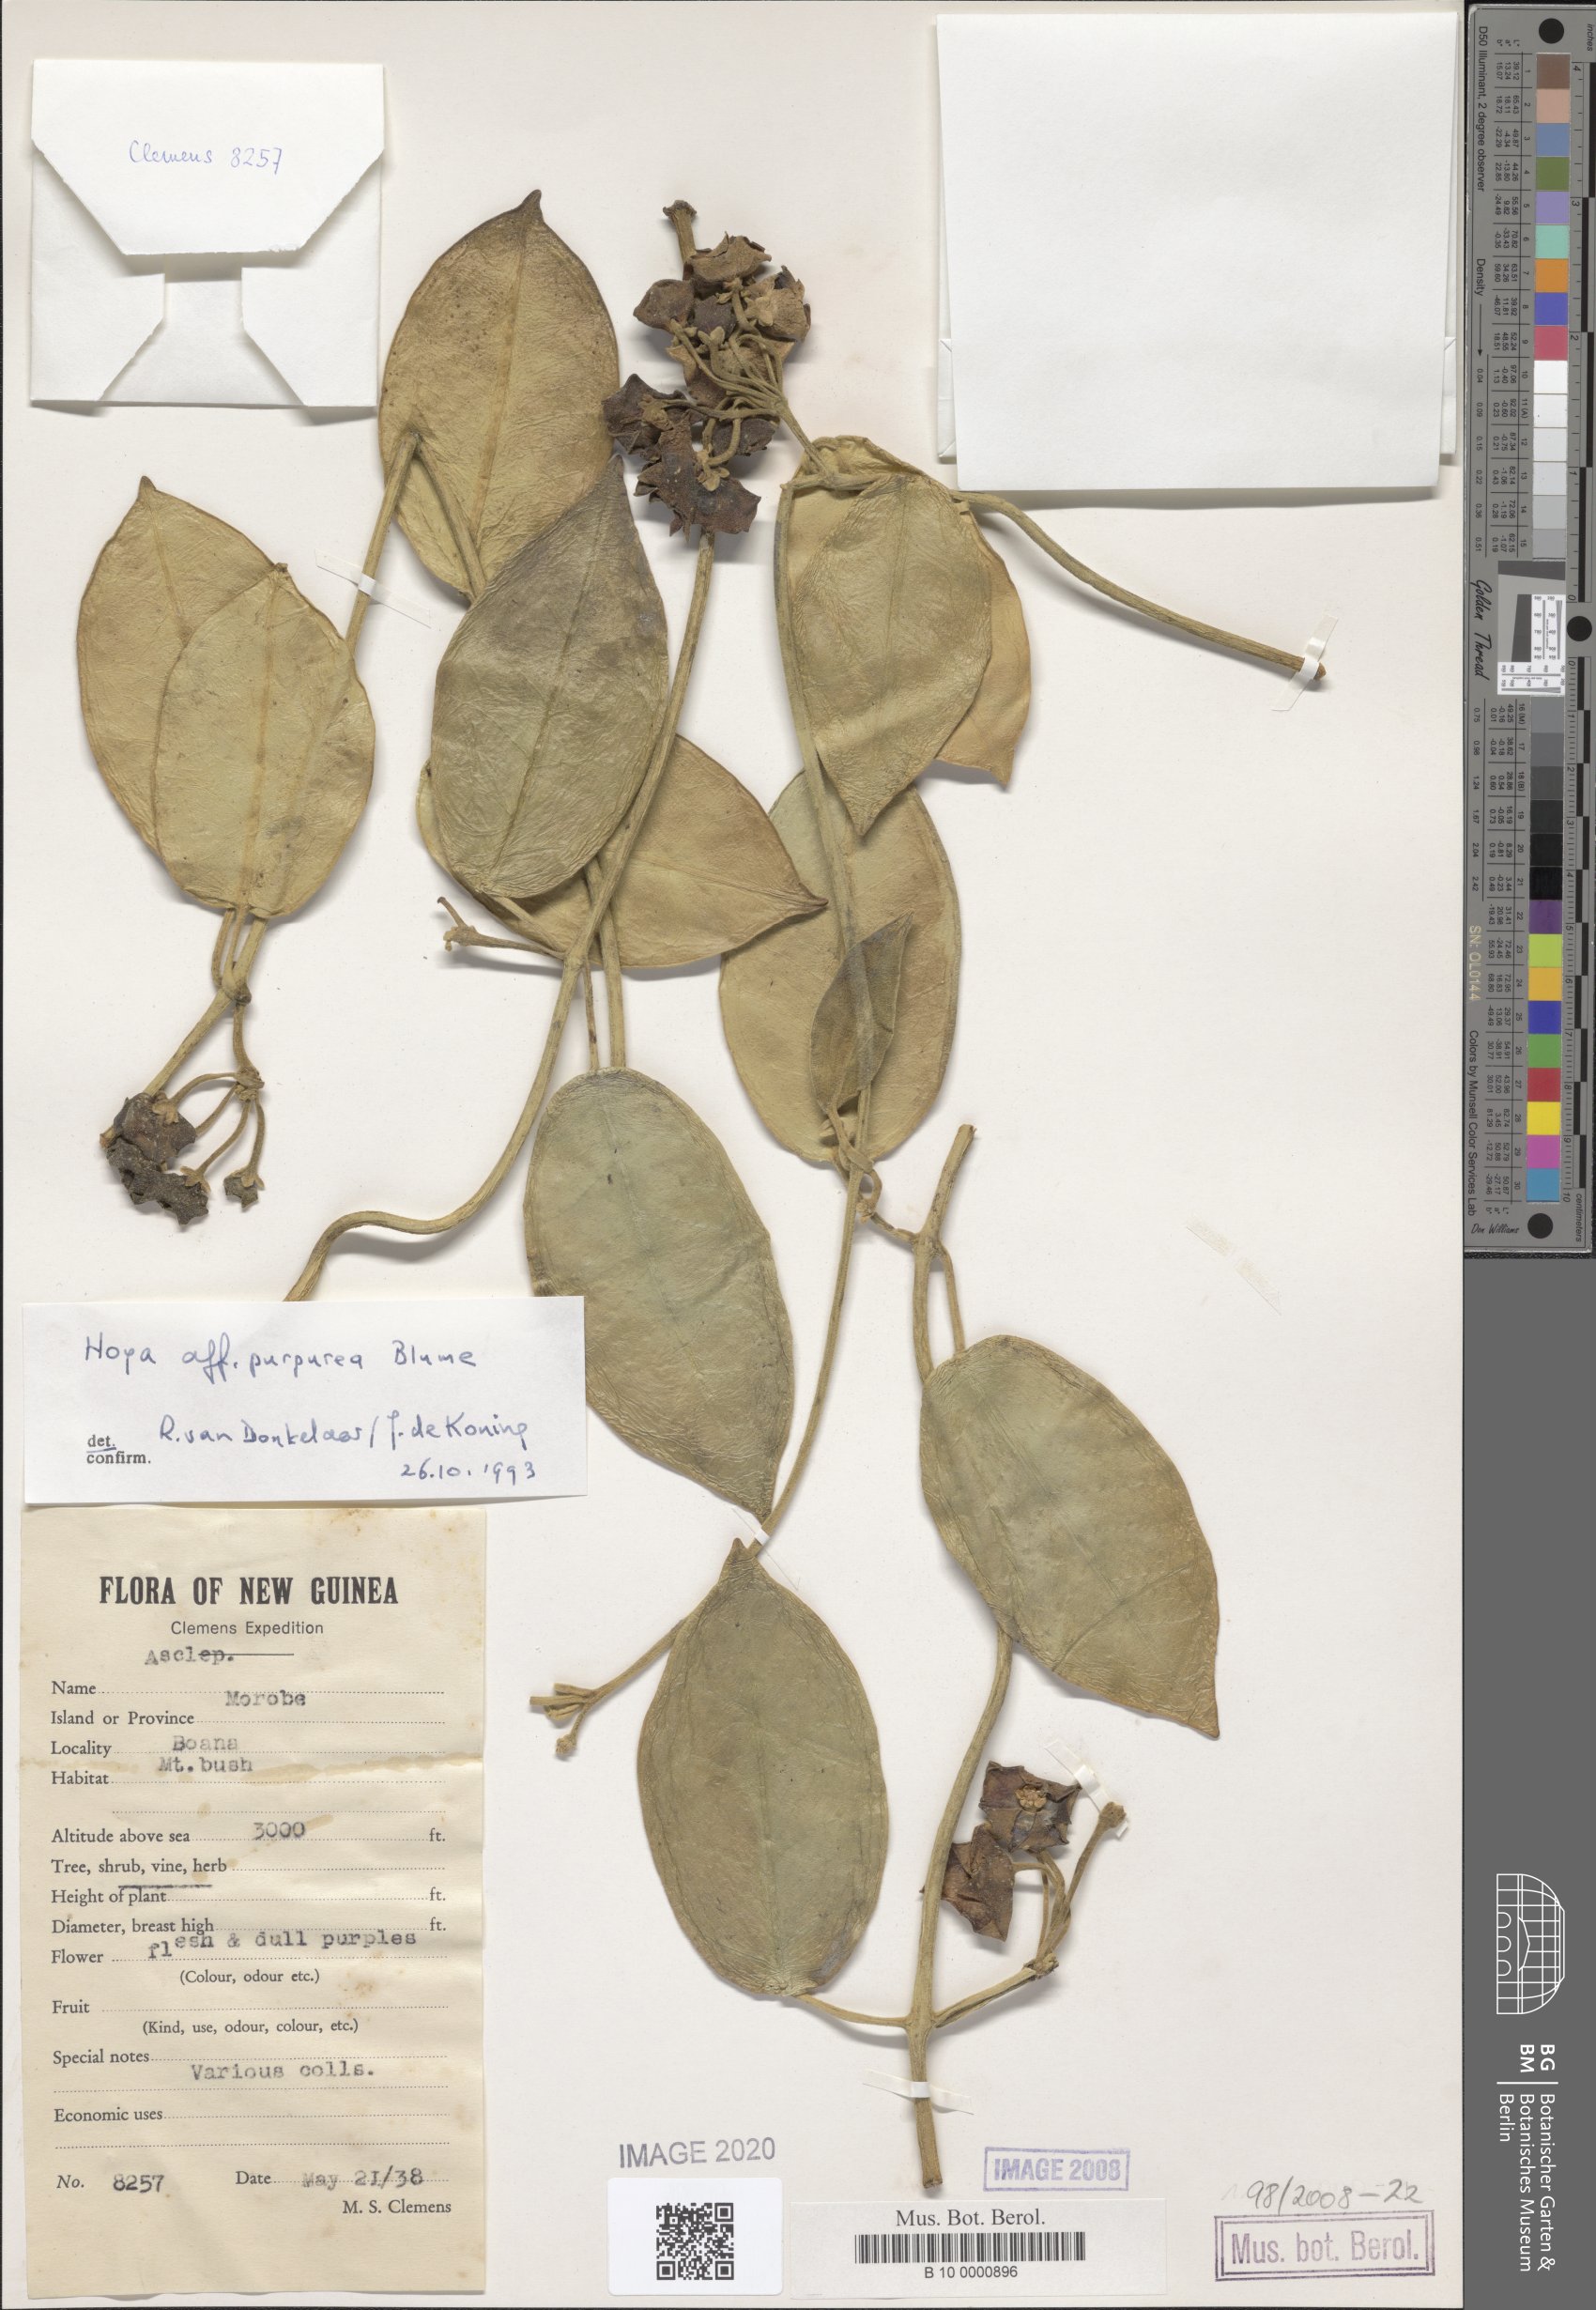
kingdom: Plantae
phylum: Tracheophyta
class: Magnoliopsida
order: Gentianales
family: Apocynaceae
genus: Eriostemma
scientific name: Eriostemma purpurea
